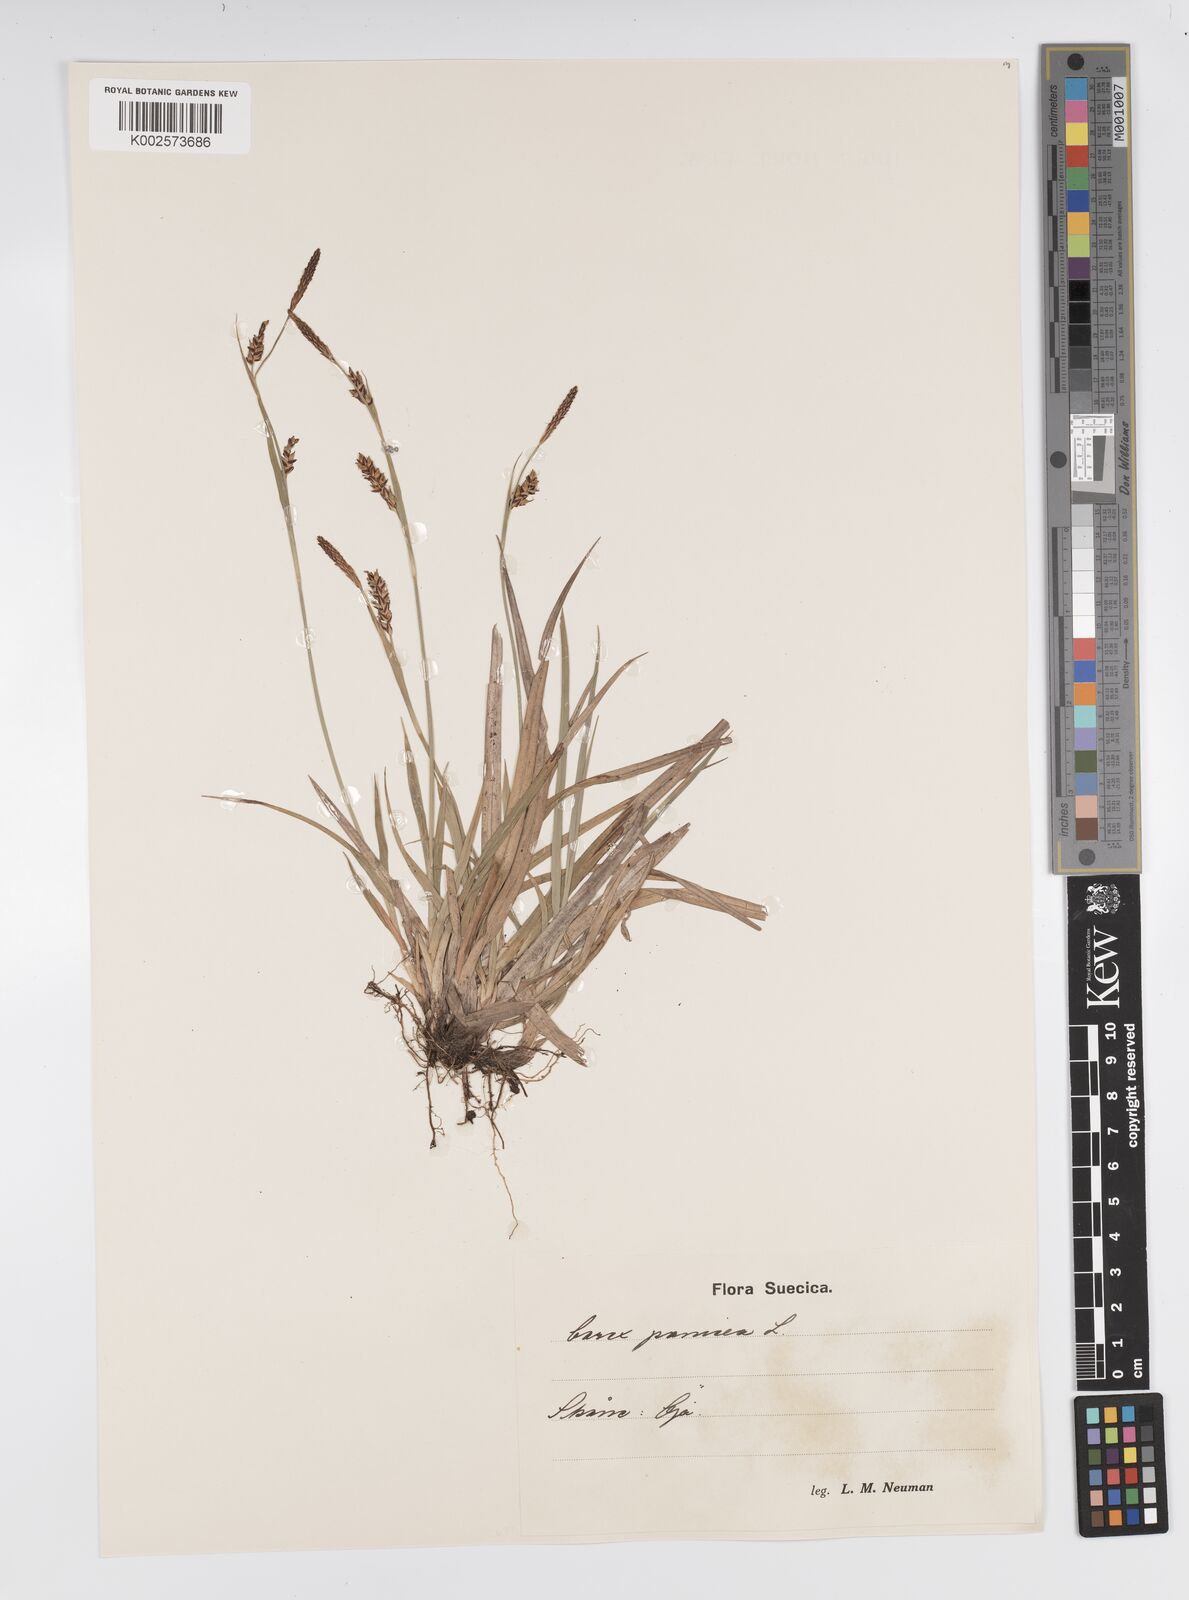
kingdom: Plantae
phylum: Tracheophyta
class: Liliopsida
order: Poales
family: Cyperaceae
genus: Carex
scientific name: Carex panicea
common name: Carnation sedge
